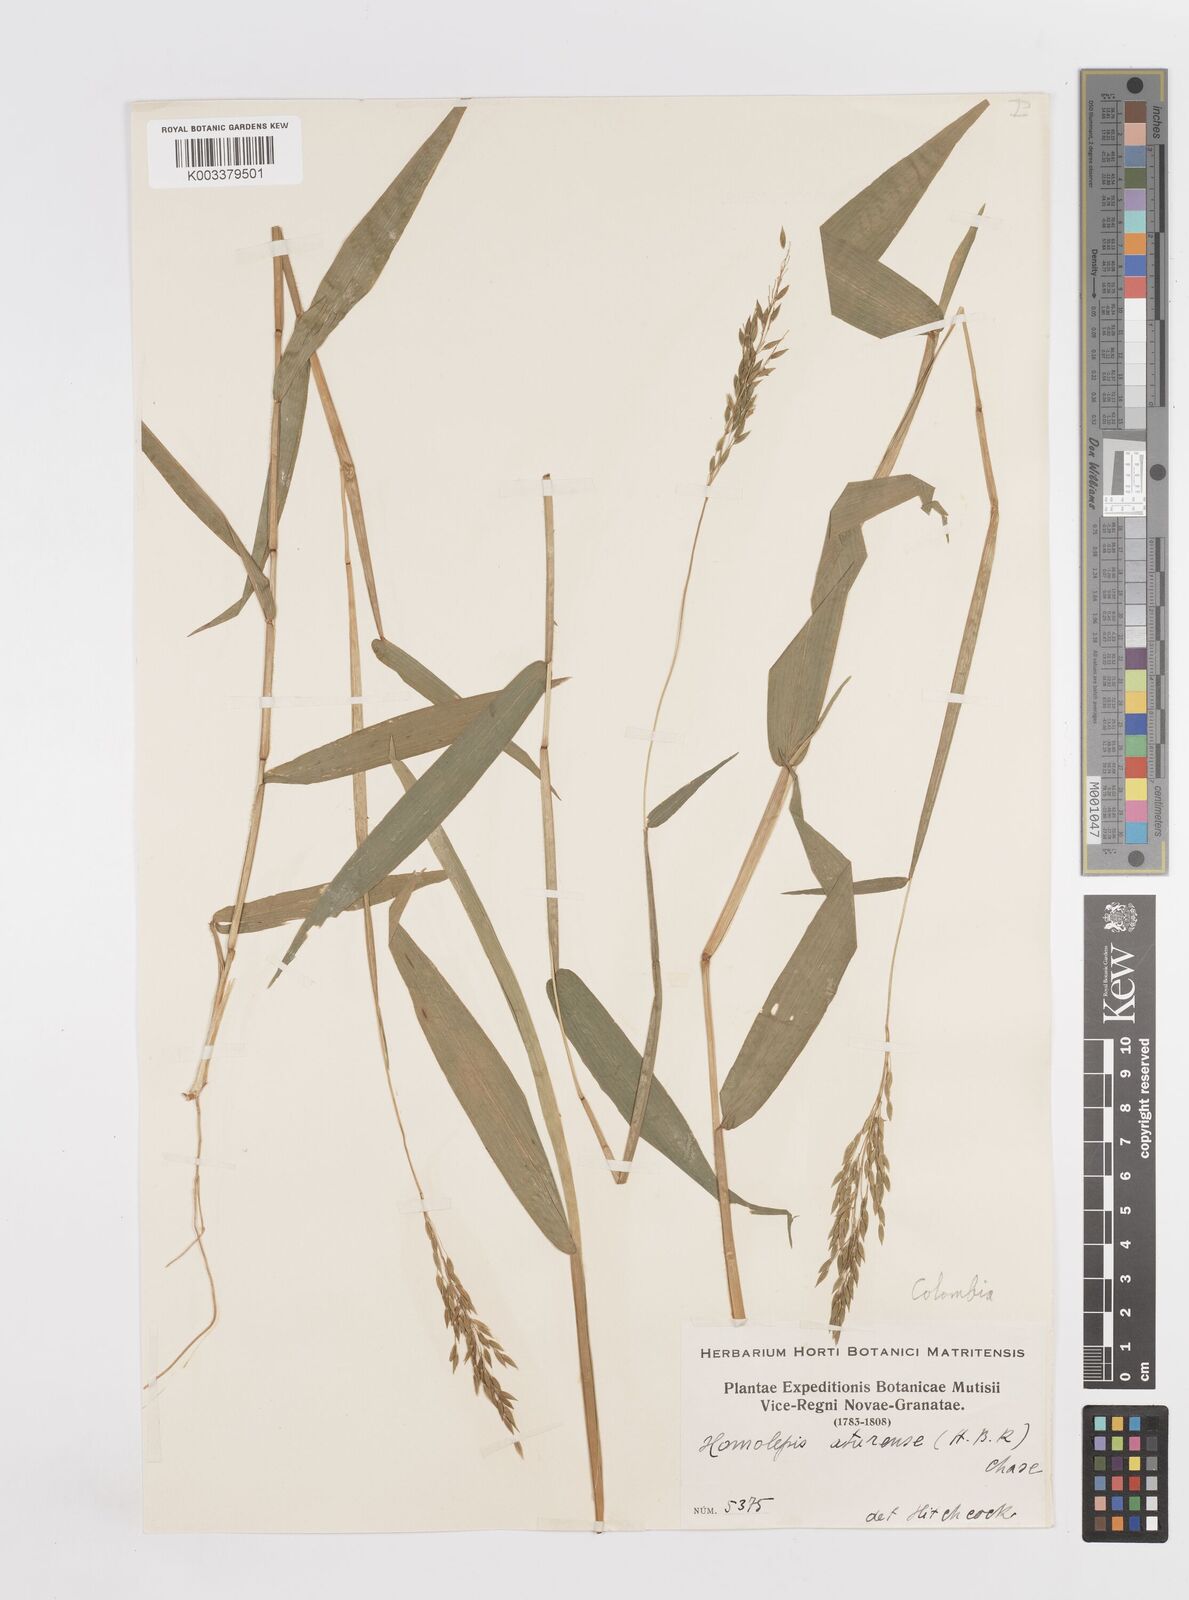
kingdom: Plantae
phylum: Tracheophyta
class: Liliopsida
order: Poales
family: Poaceae
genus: Homolepis
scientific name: Homolepis aturensis
